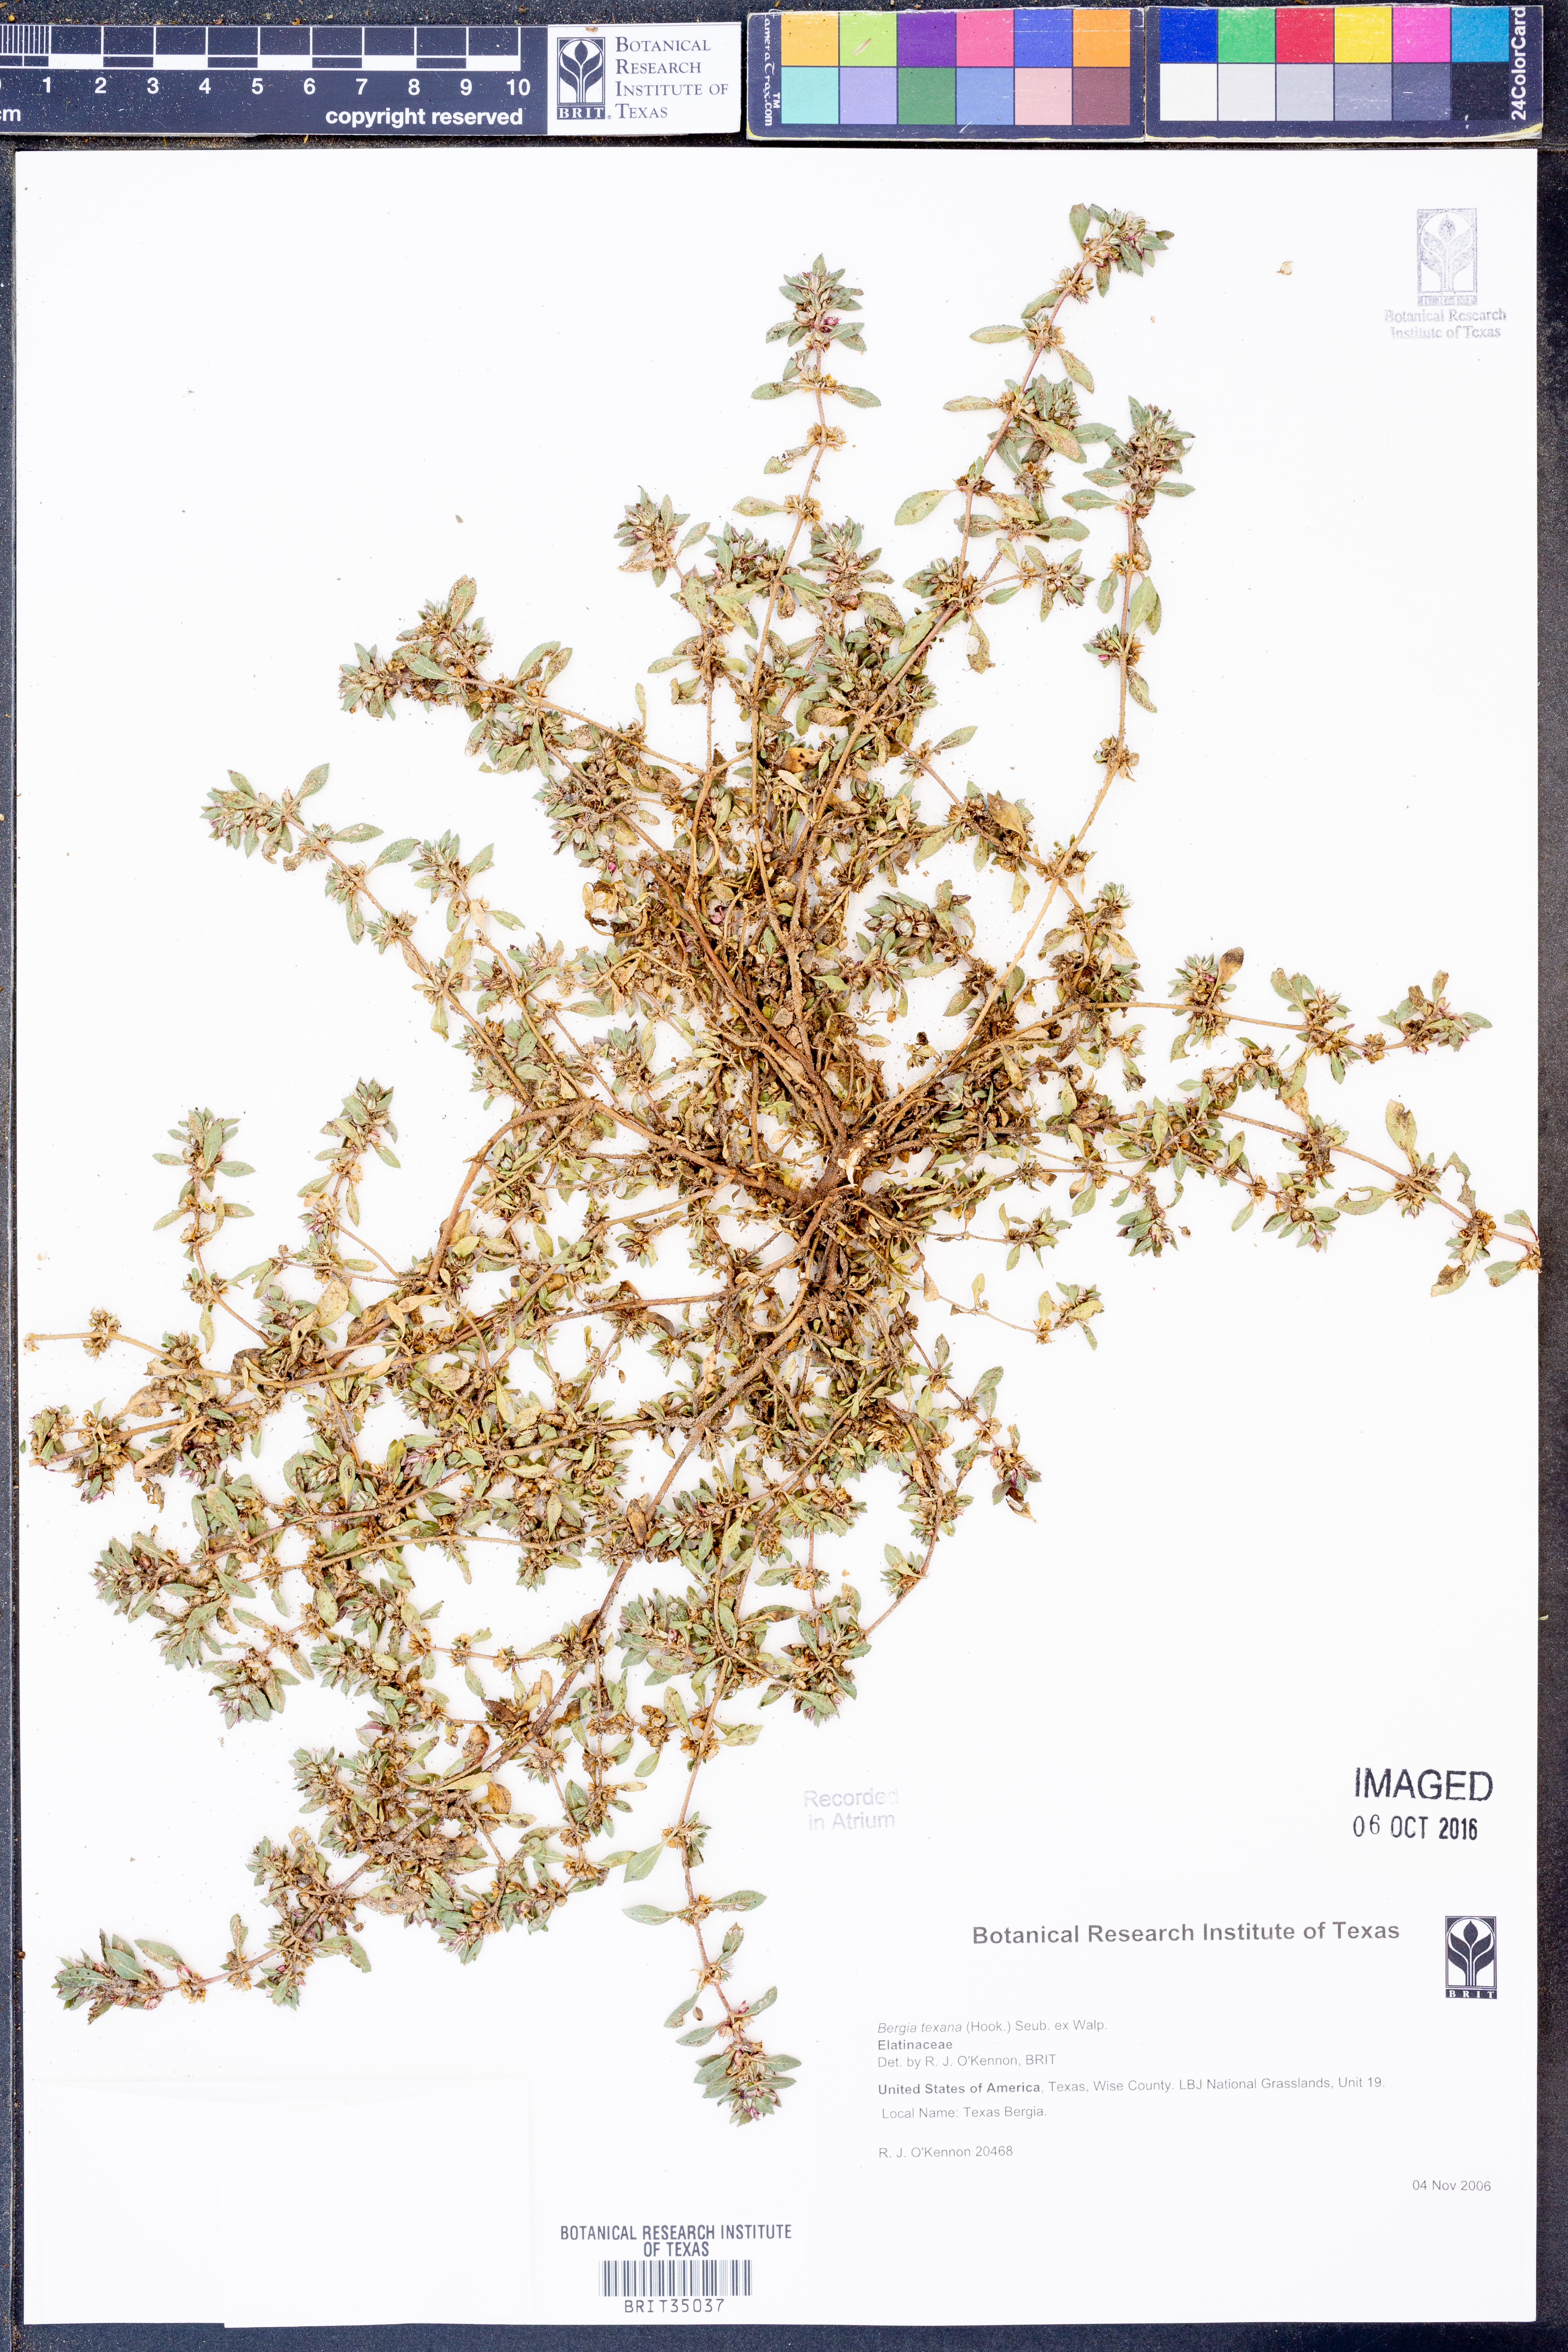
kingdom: Plantae
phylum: Tracheophyta
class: Magnoliopsida
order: Malpighiales
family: Elatinaceae
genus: Bergia
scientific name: Bergia texana
